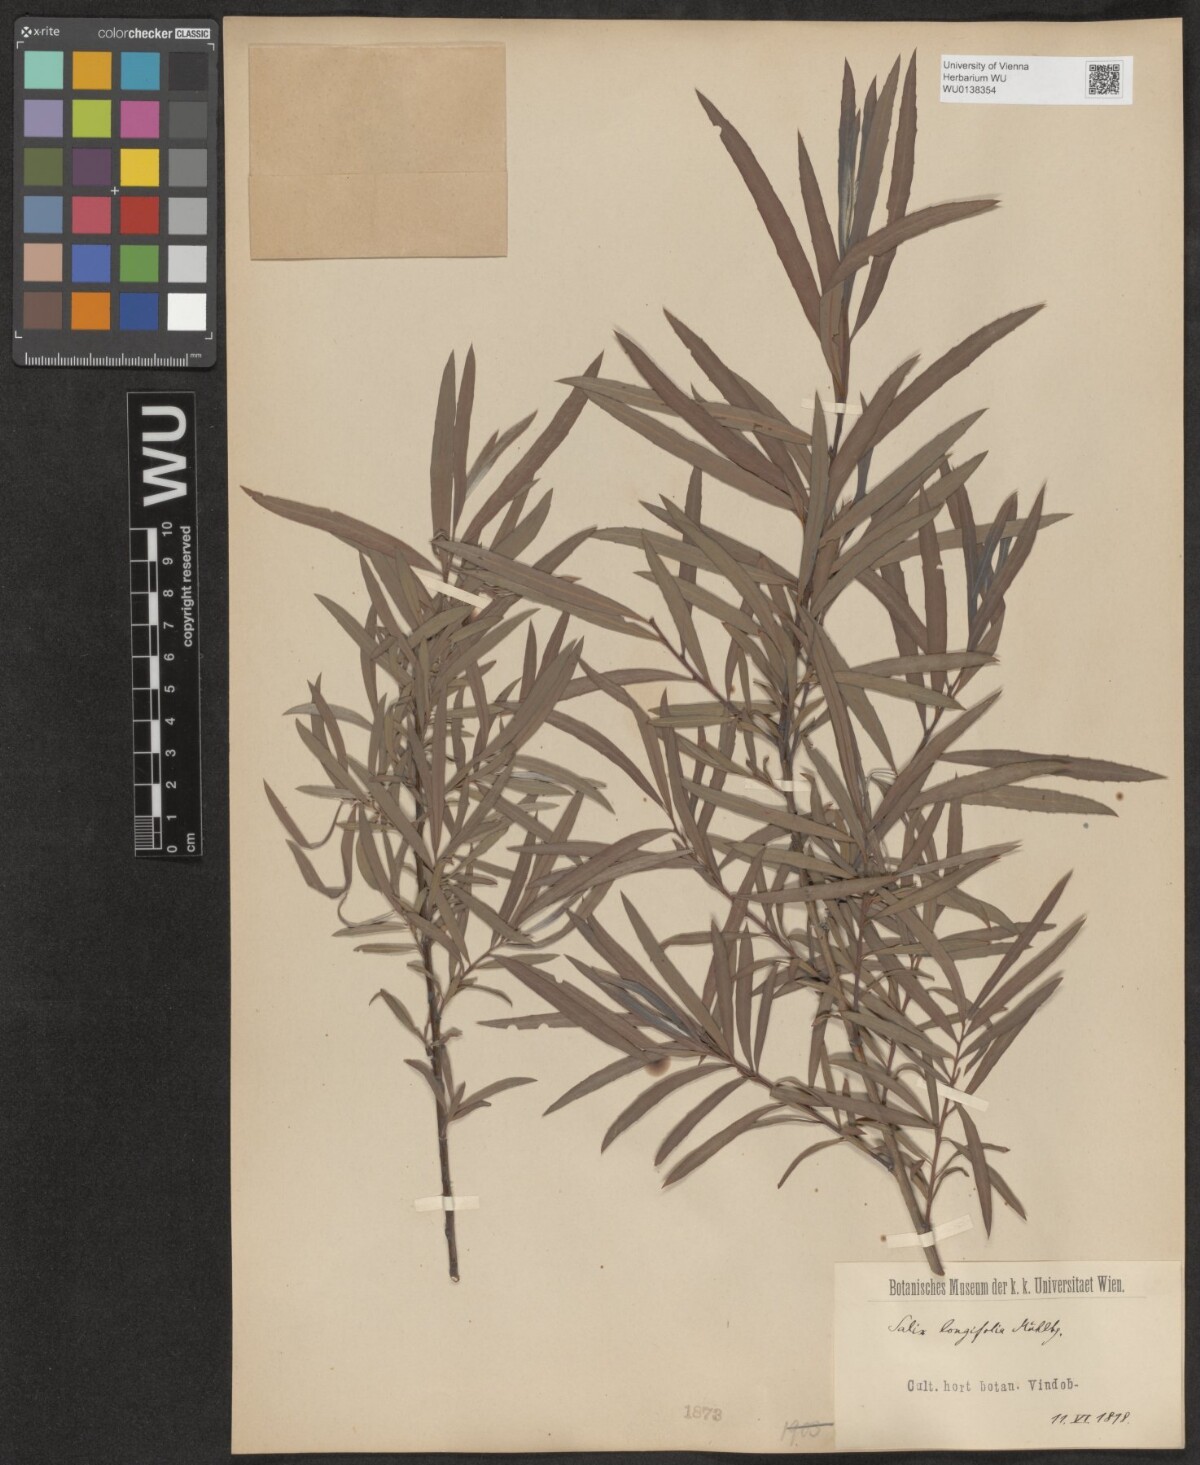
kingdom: Plantae
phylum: Tracheophyta
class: Magnoliopsida
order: Malpighiales
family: Salicaceae
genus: Salix
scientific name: Salix interior
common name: Sandbar willow
